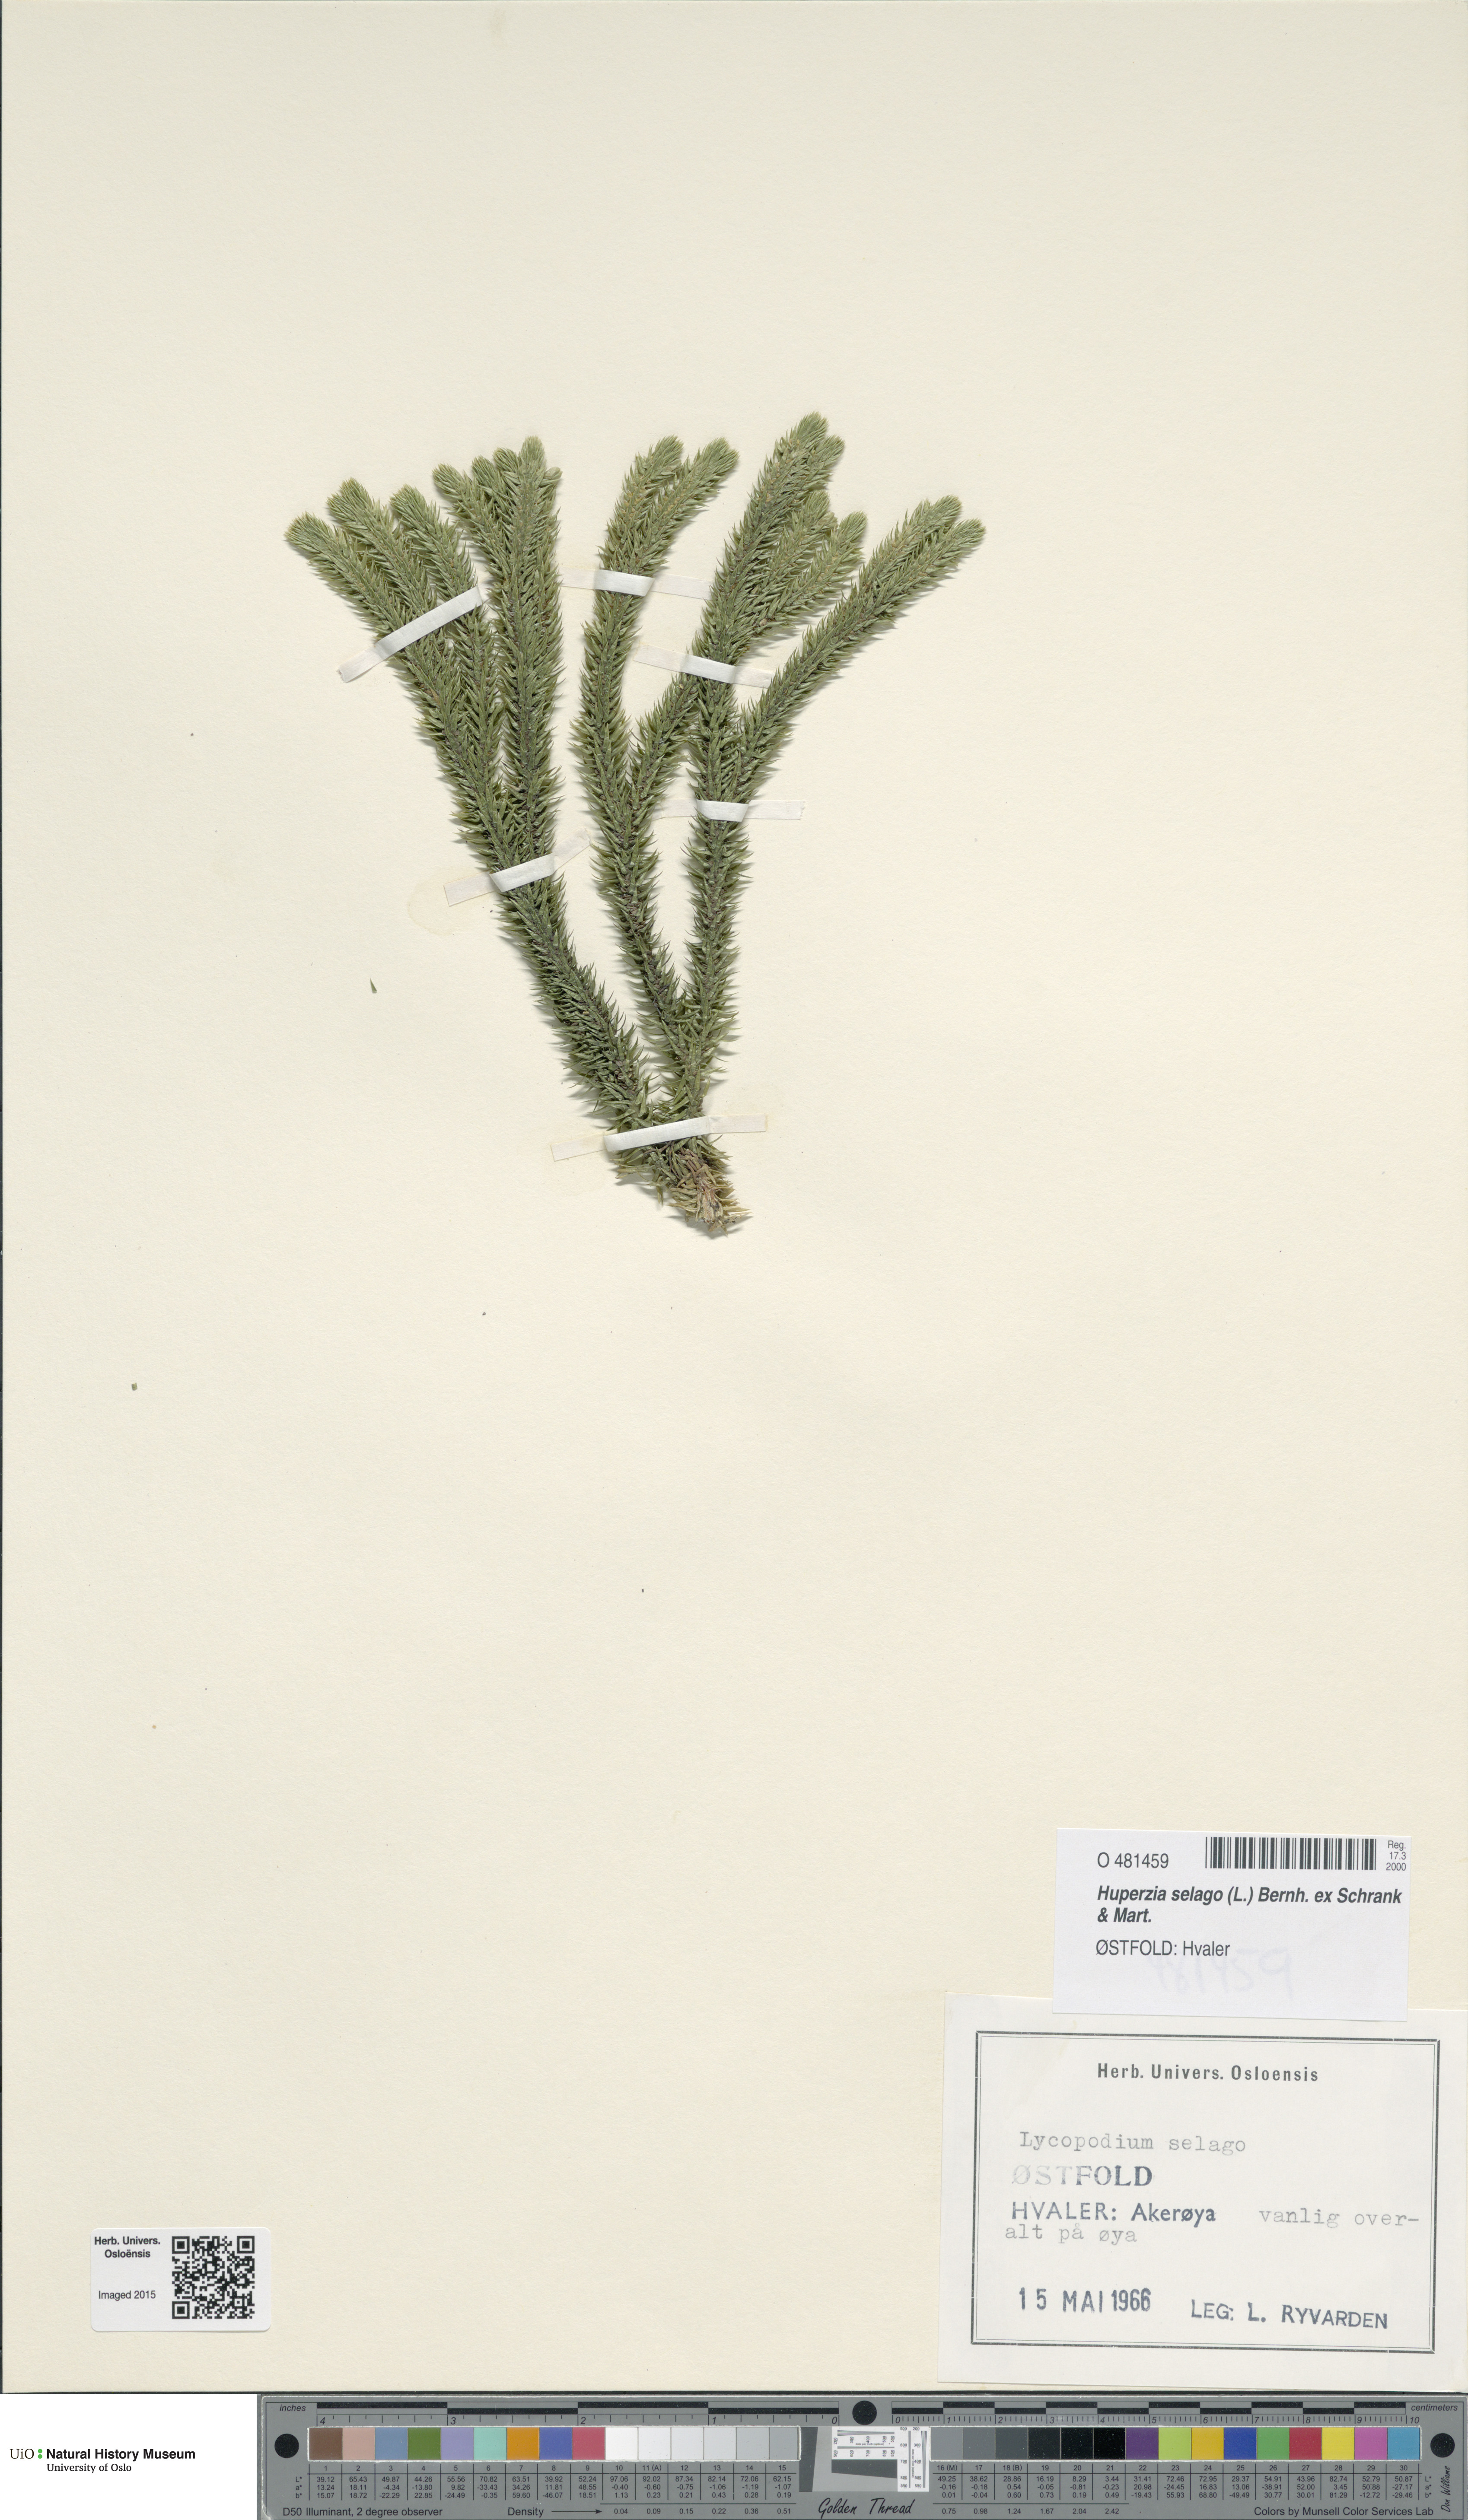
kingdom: Plantae
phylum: Tracheophyta
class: Lycopodiopsida
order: Lycopodiales
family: Lycopodiaceae
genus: Huperzia
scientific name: Huperzia selago
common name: Northern firmoss
